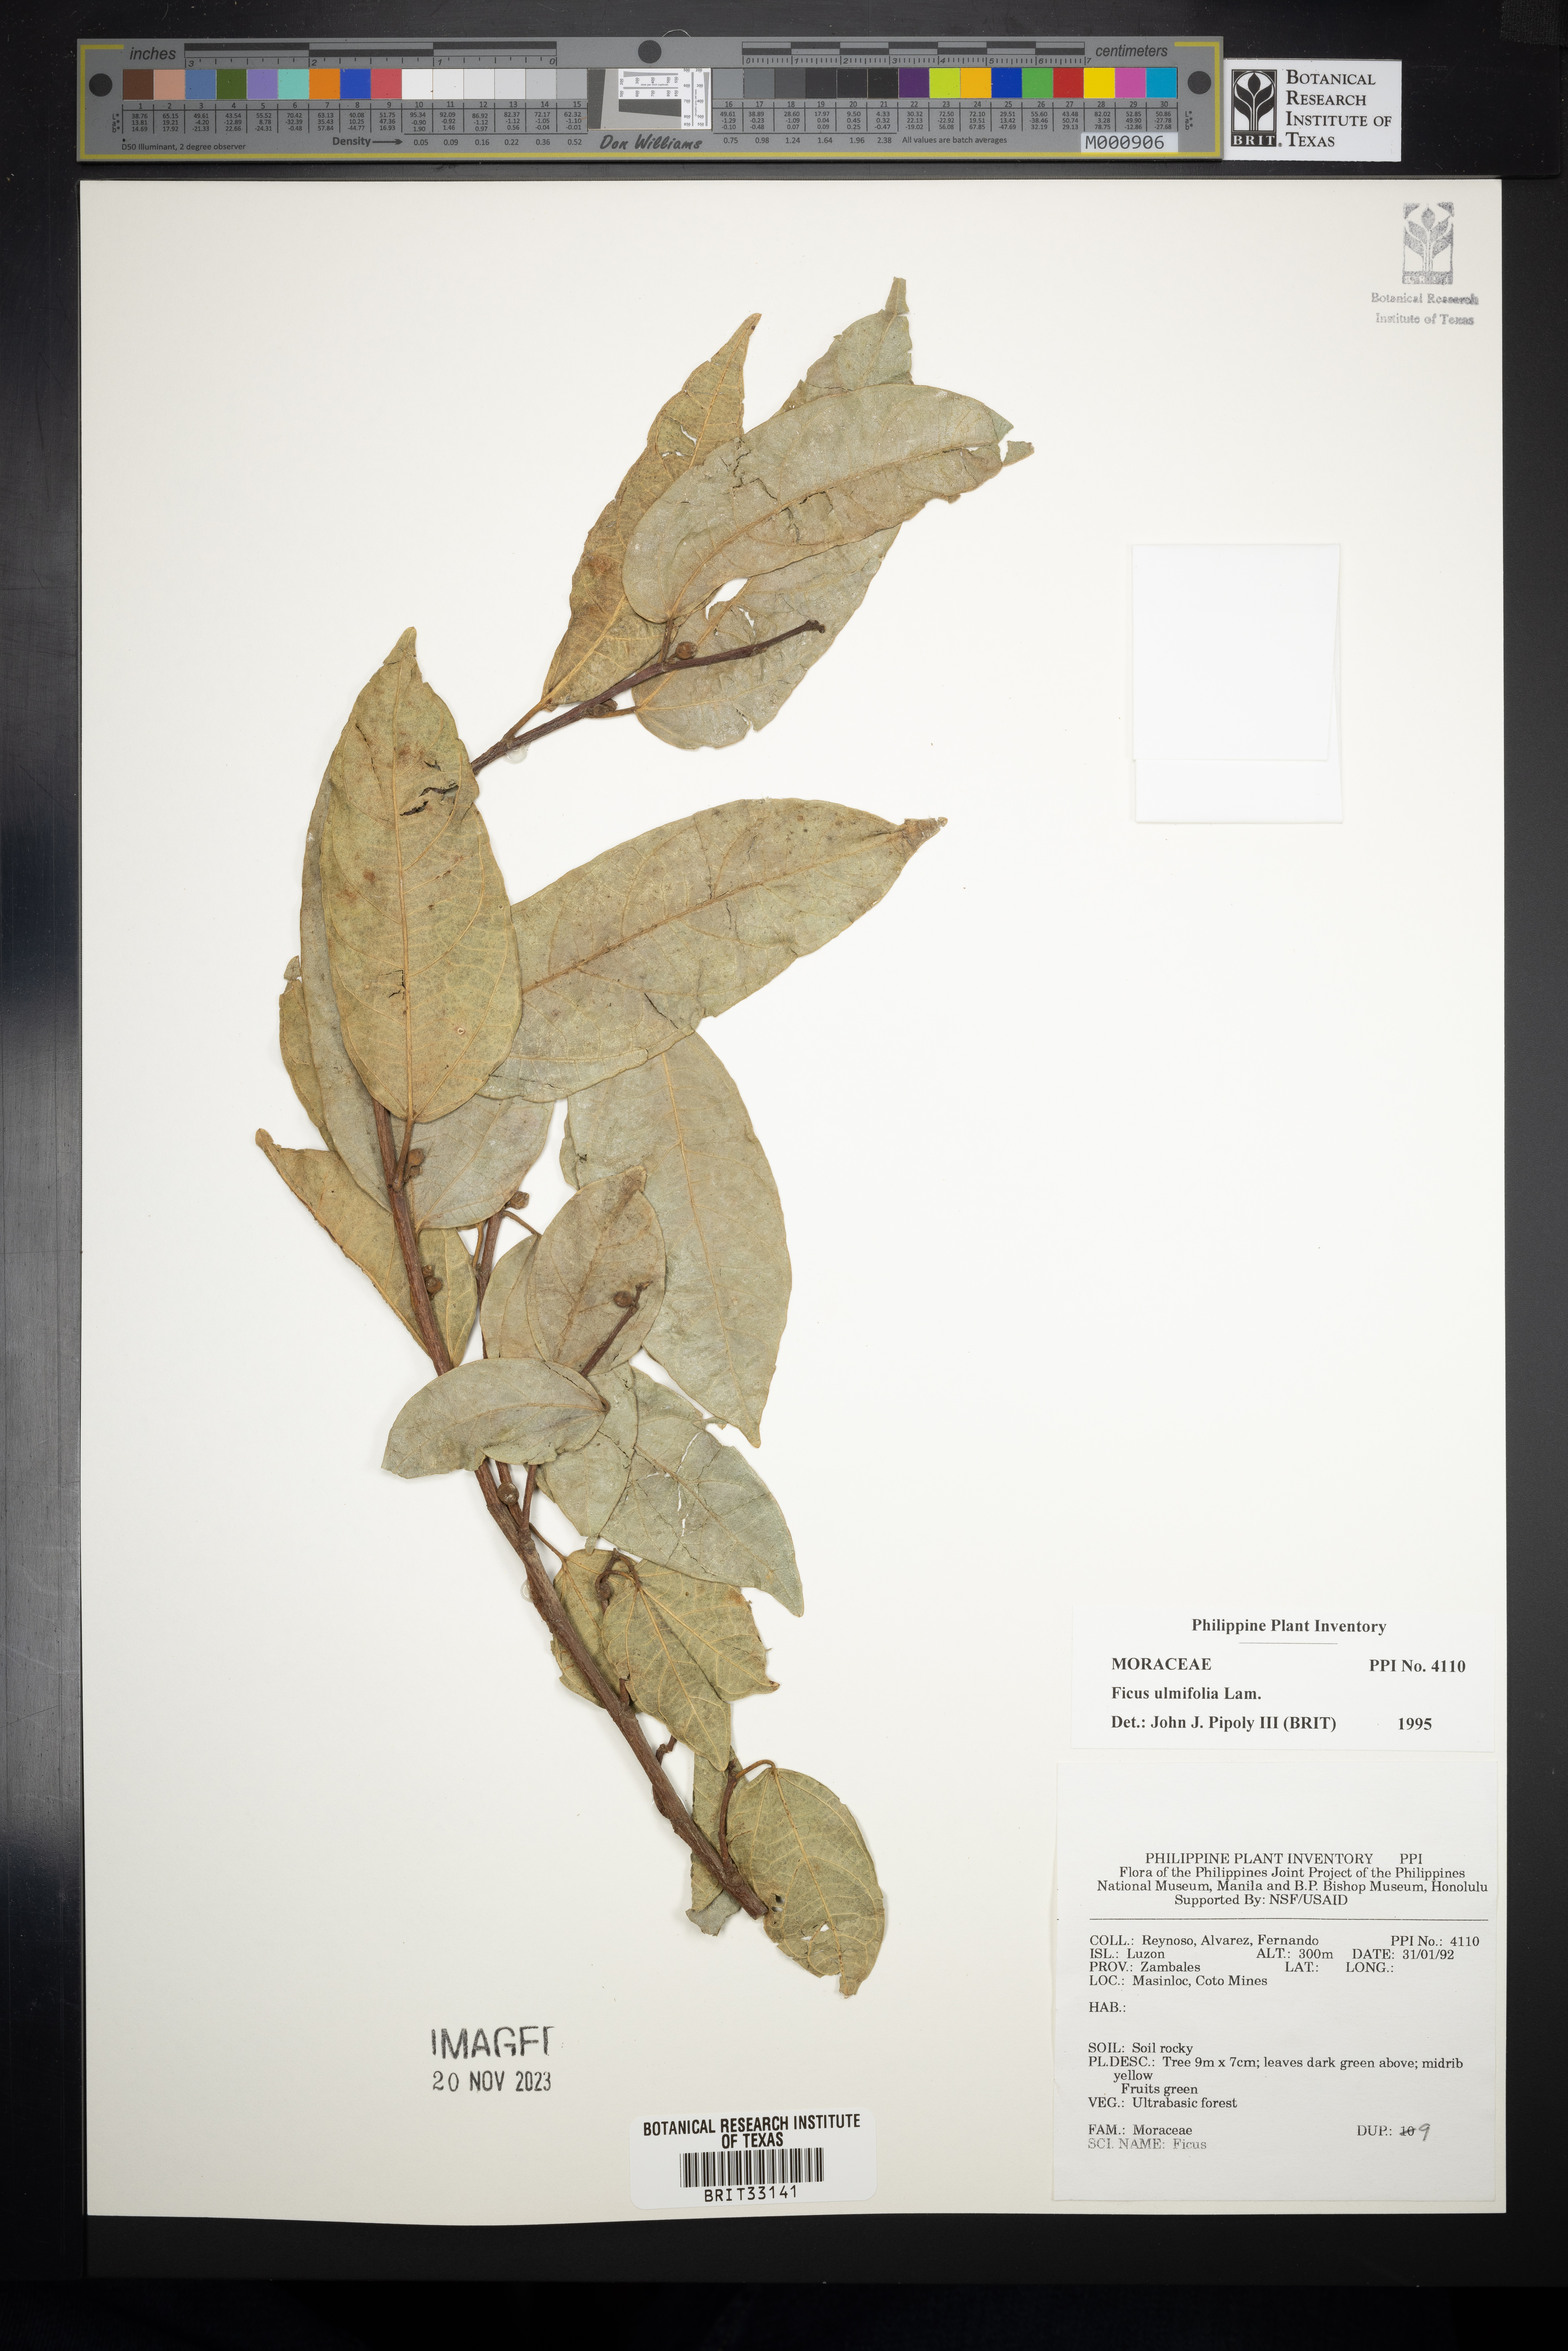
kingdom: Plantae
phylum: Tracheophyta
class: Magnoliopsida
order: Rosales
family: Moraceae
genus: Ficus
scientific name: Ficus ulmifolia
